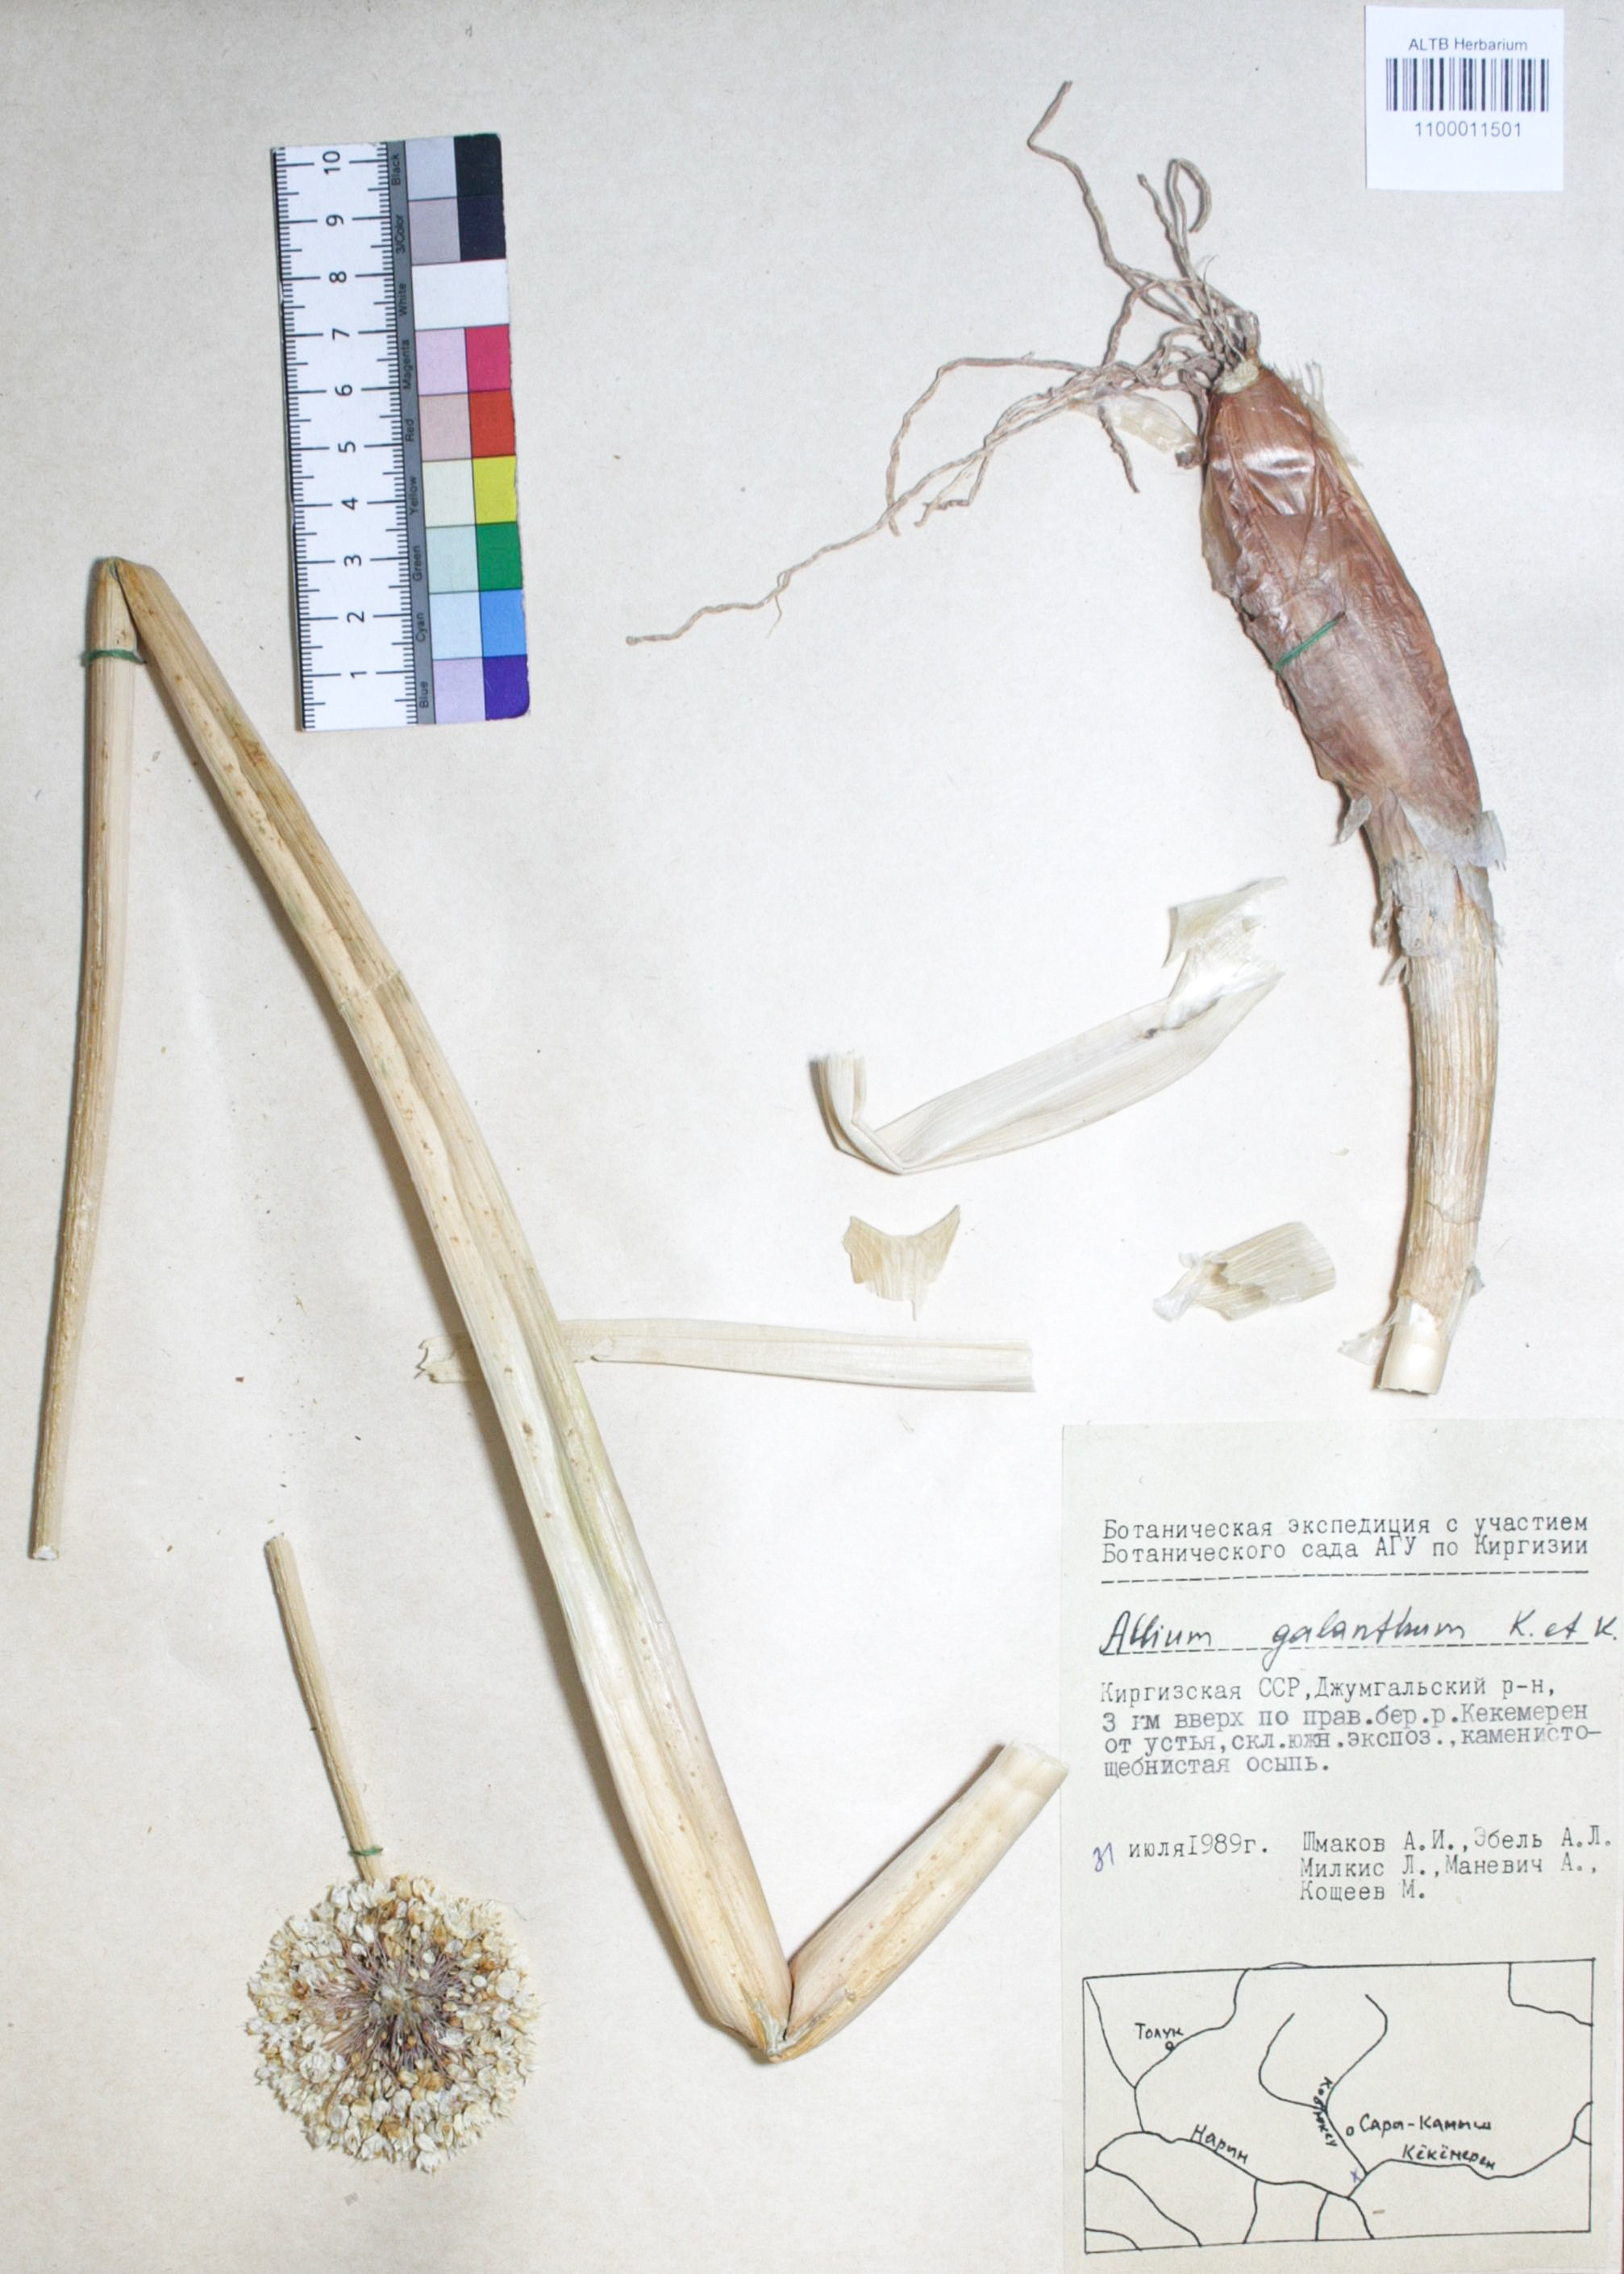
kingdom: Plantae
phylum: Tracheophyta
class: Liliopsida
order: Asparagales
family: Amaryllidaceae
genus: Allium
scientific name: Allium galanthum
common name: Snowdrop onion
